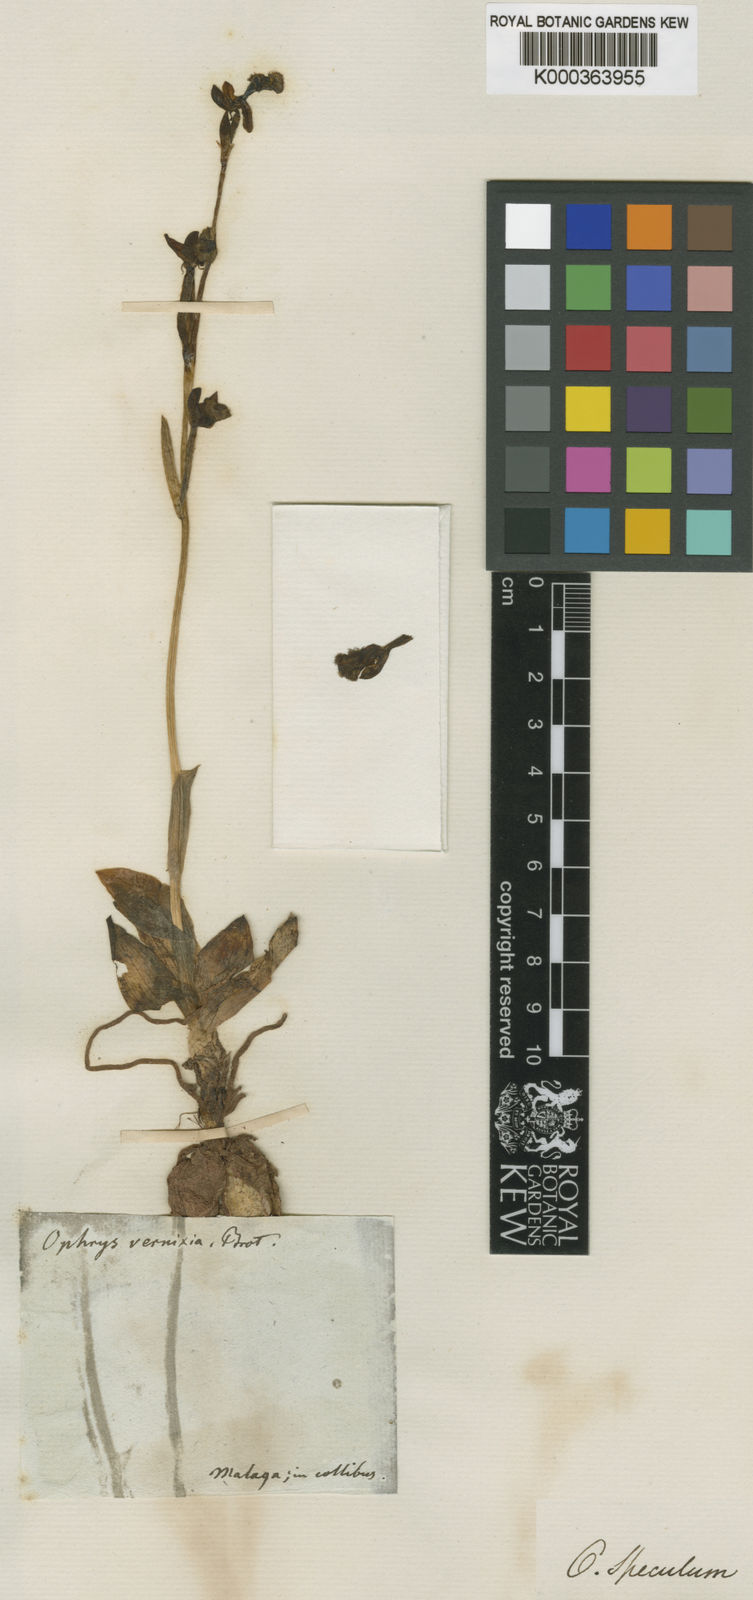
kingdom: Plantae
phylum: Tracheophyta
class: Liliopsida
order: Asparagales
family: Orchidaceae
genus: Ophrys
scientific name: Ophrys speculum
